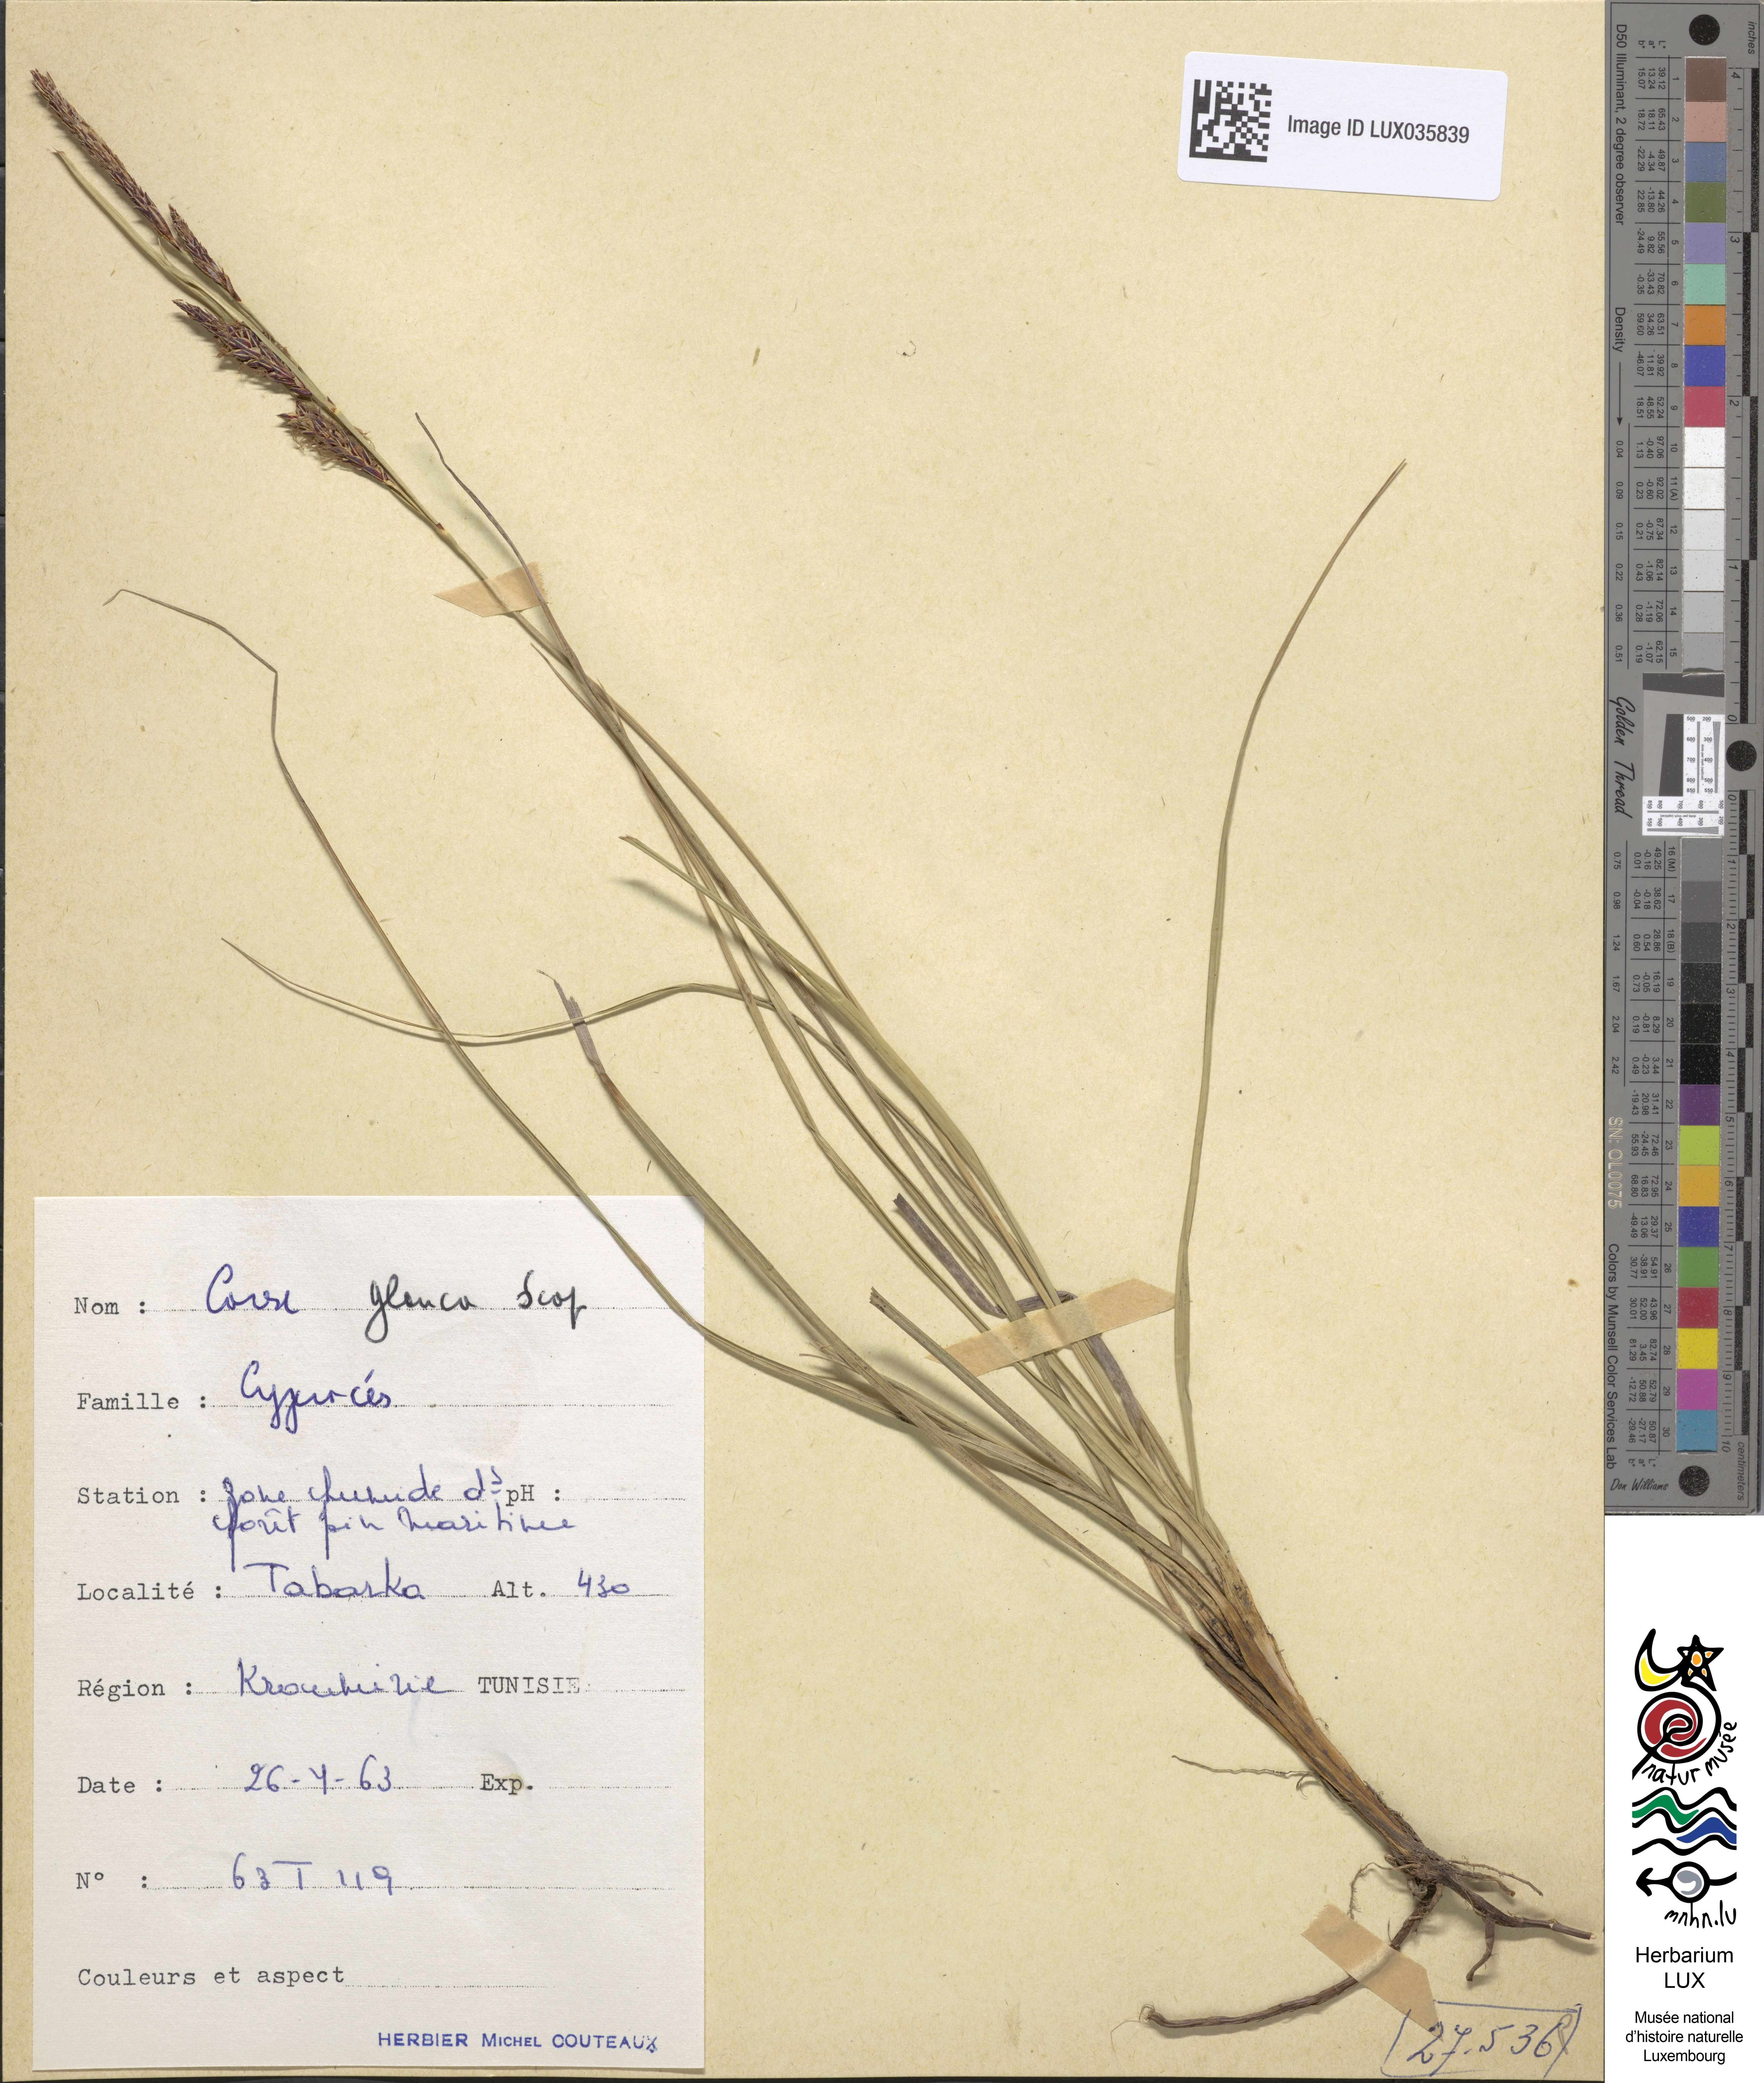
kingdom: Plantae
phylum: Tracheophyta
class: Liliopsida
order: Poales
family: Cyperaceae
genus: Carex
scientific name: Carex flacca
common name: Glaucous sedge
